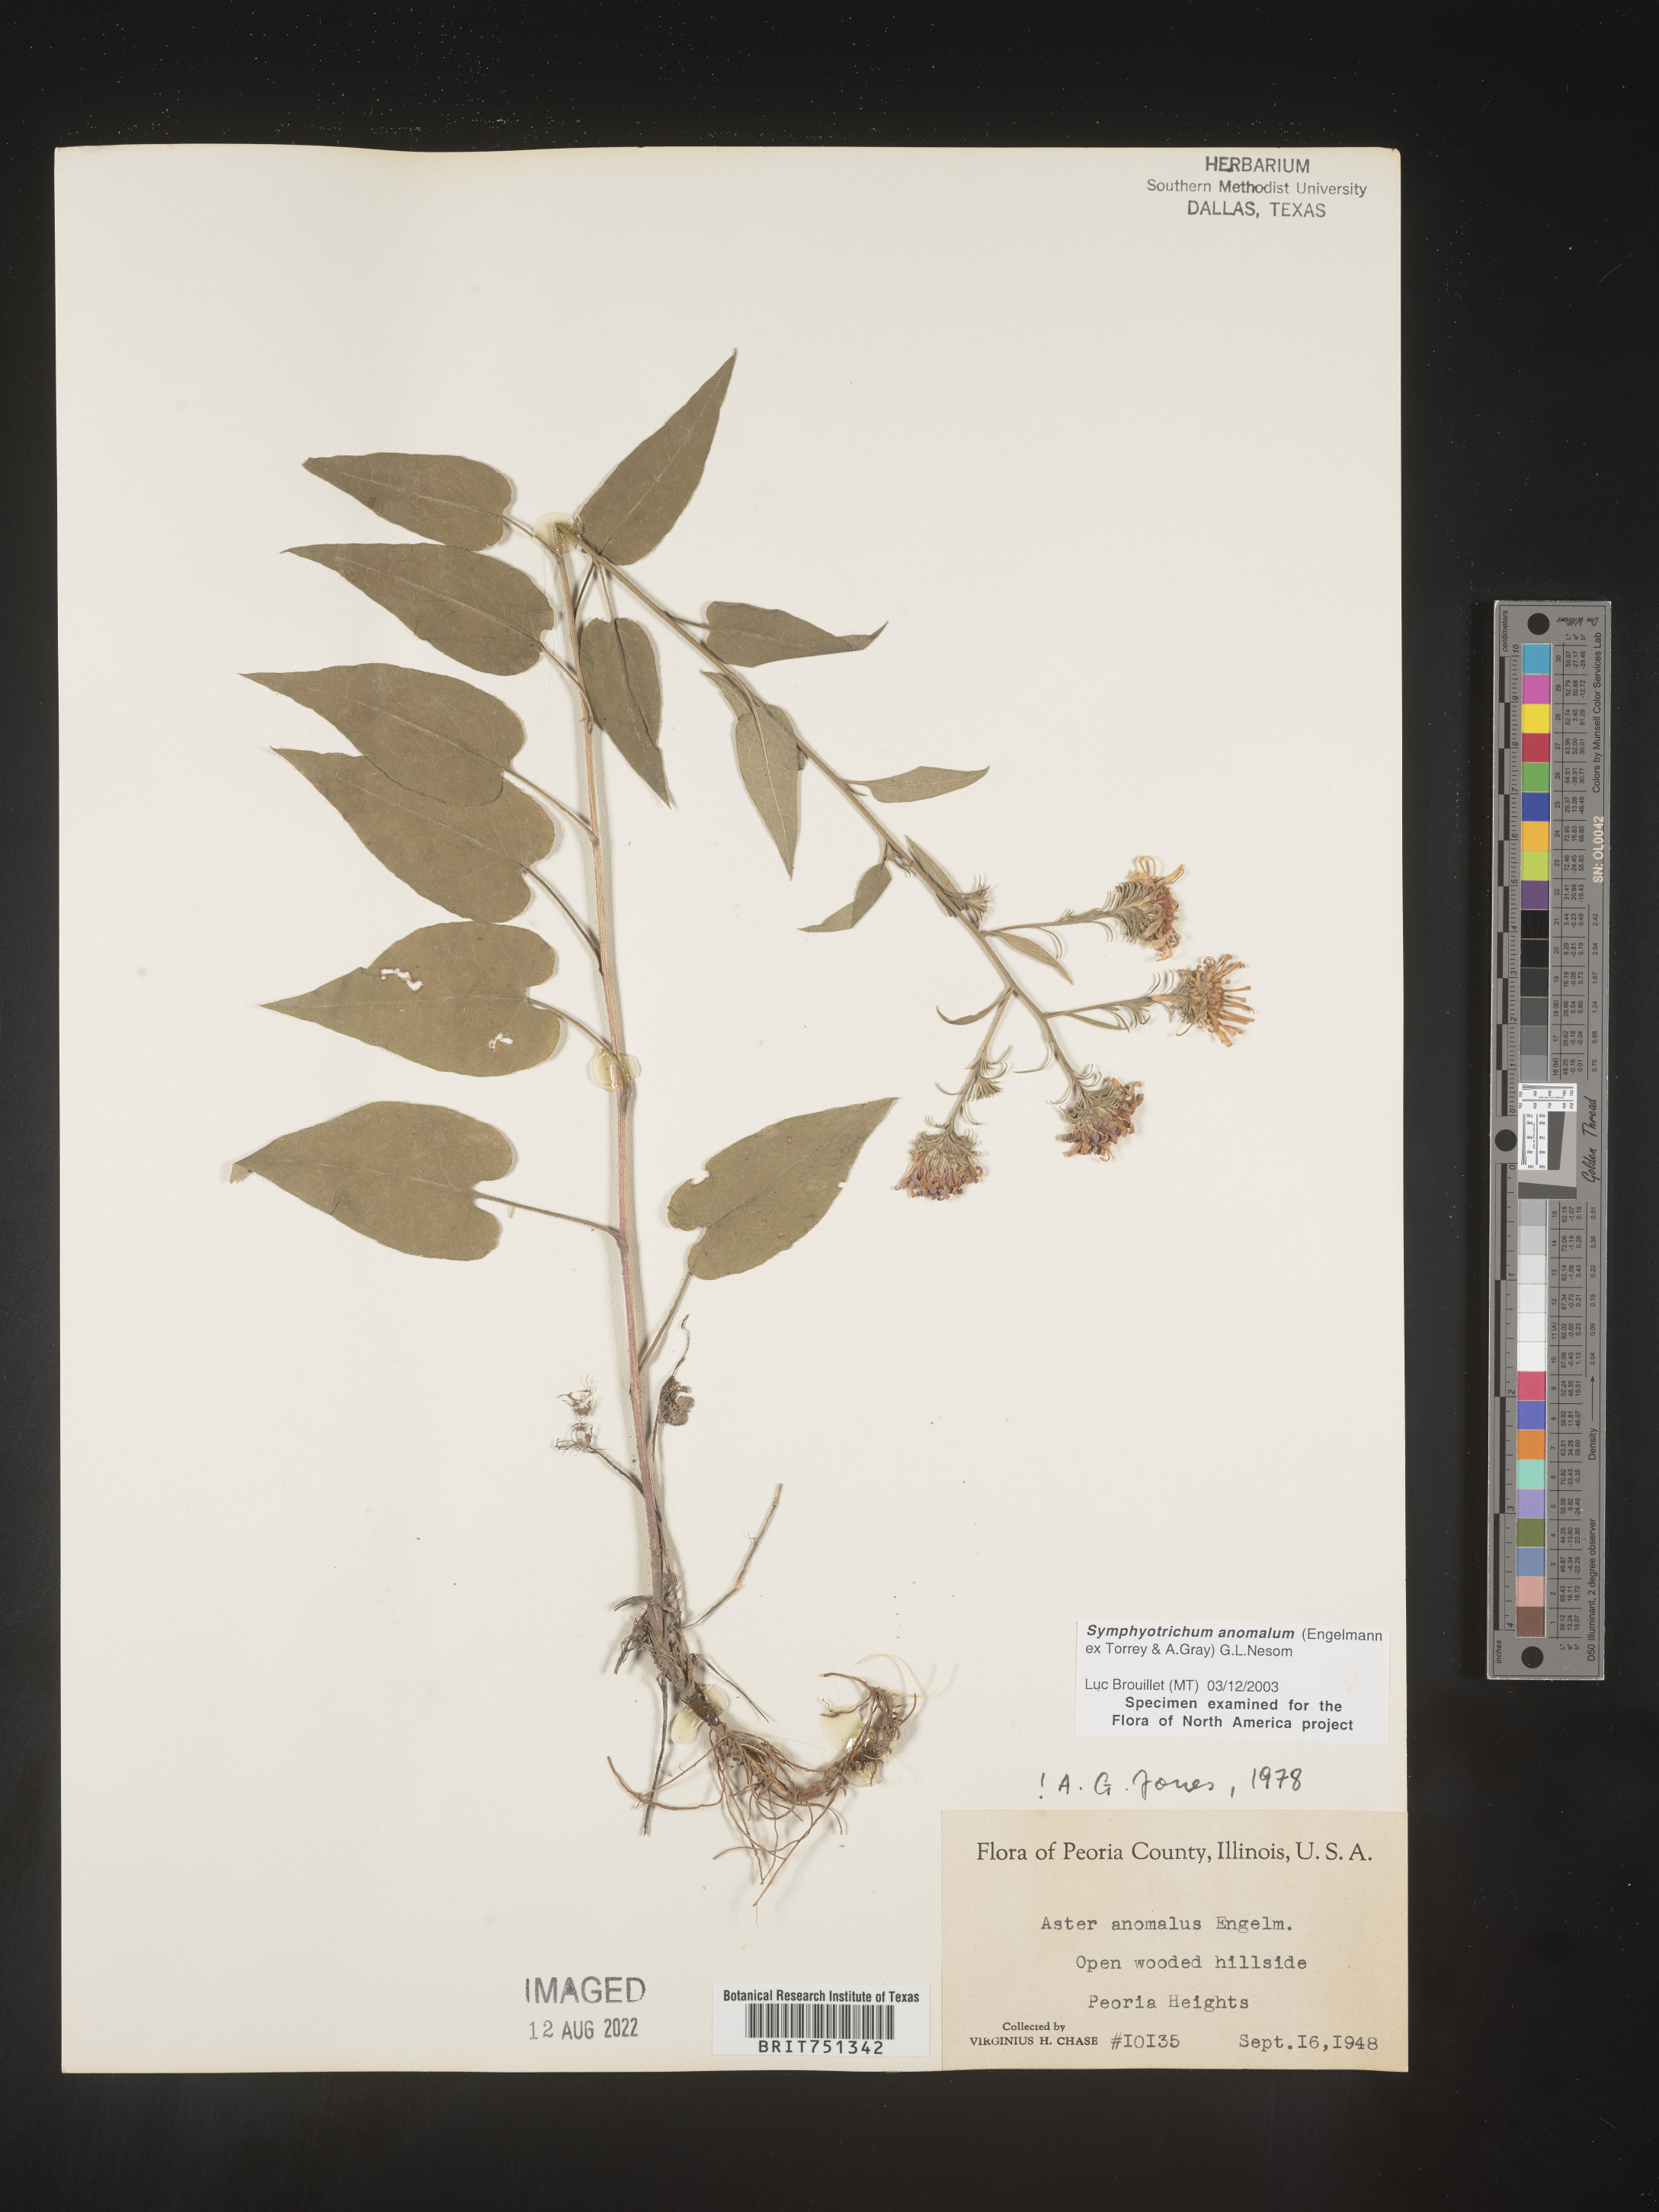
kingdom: Plantae
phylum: Tracheophyta
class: Magnoliopsida
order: Asterales
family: Asteraceae
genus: Symphyotrichum
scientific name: Symphyotrichum anomalum
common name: Many-ray aster
